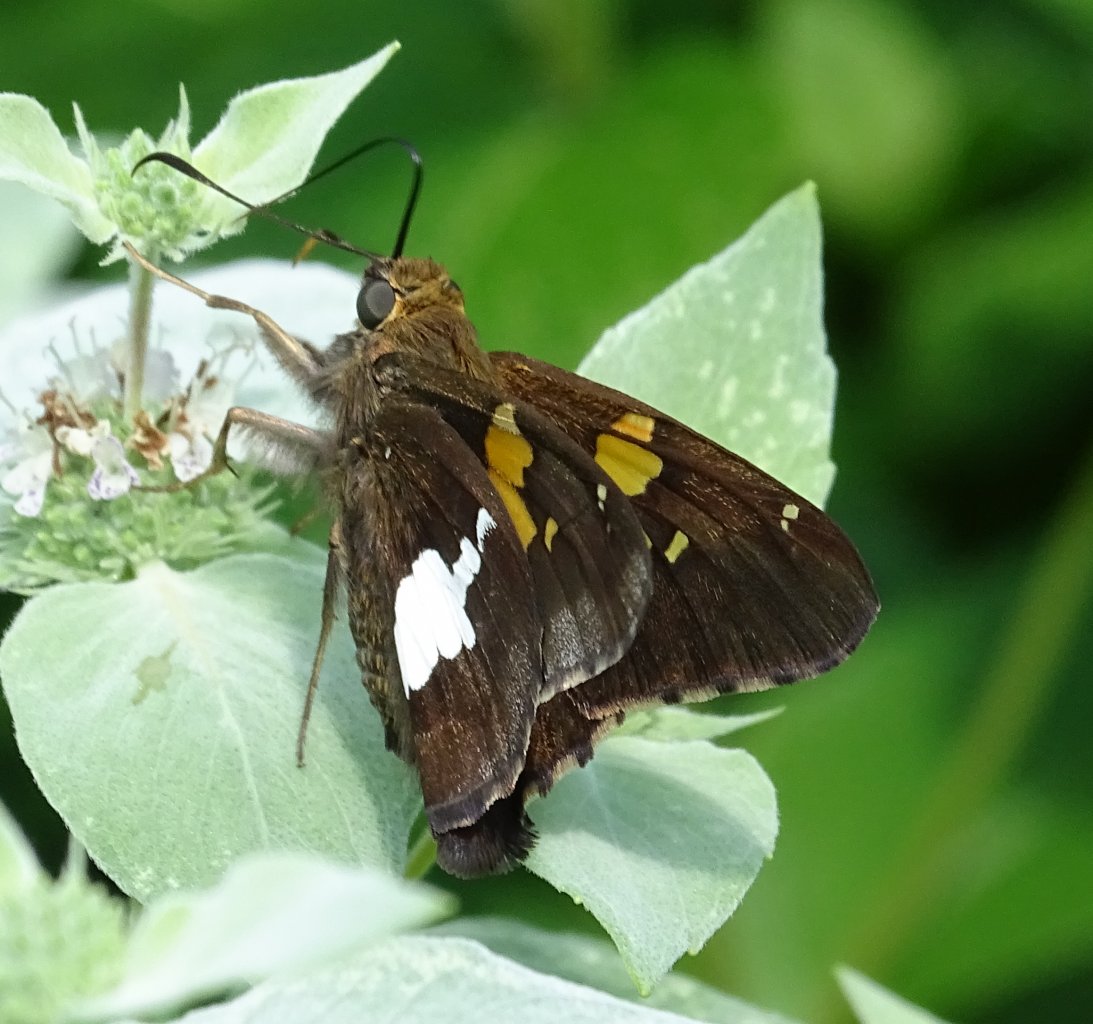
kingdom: Animalia
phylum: Arthropoda
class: Insecta
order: Lepidoptera
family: Hesperiidae
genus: Epargyreus
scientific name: Epargyreus clarus
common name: Silver-spotted Skipper
